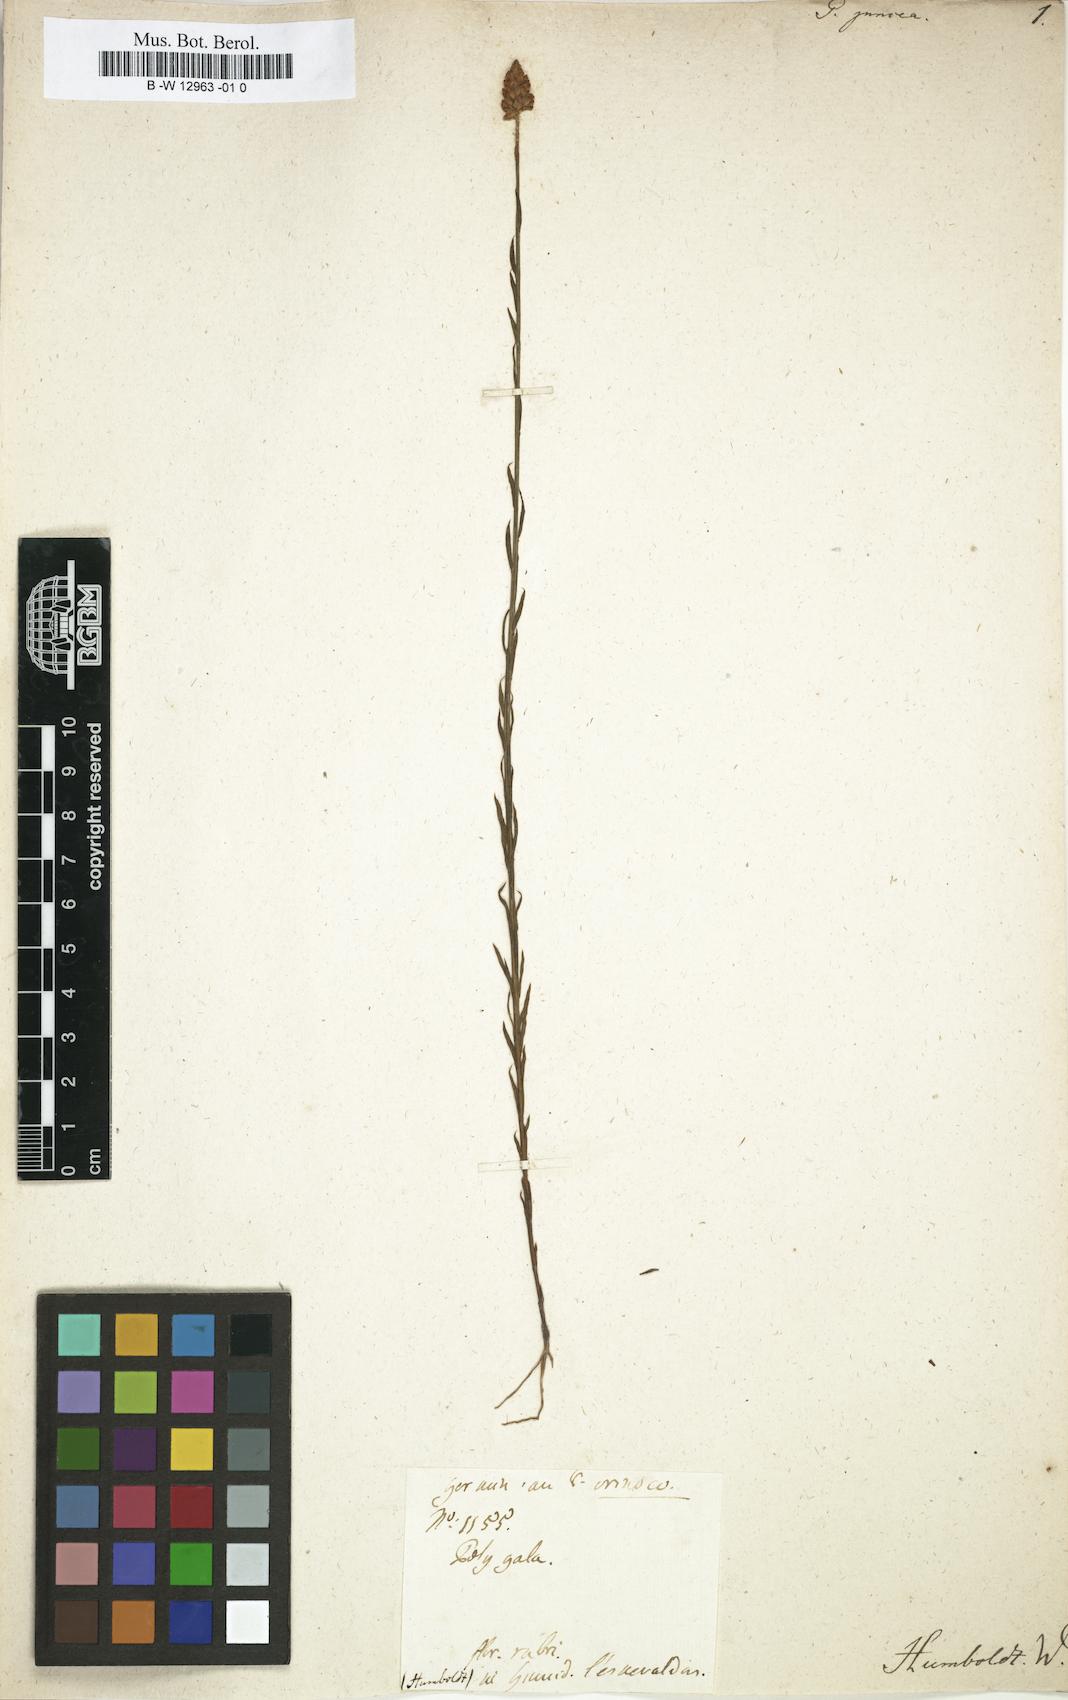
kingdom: Plantae
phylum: Tracheophyta
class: Magnoliopsida
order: Fabales
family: Polygalaceae
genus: Polygala
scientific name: Polygala juncea
